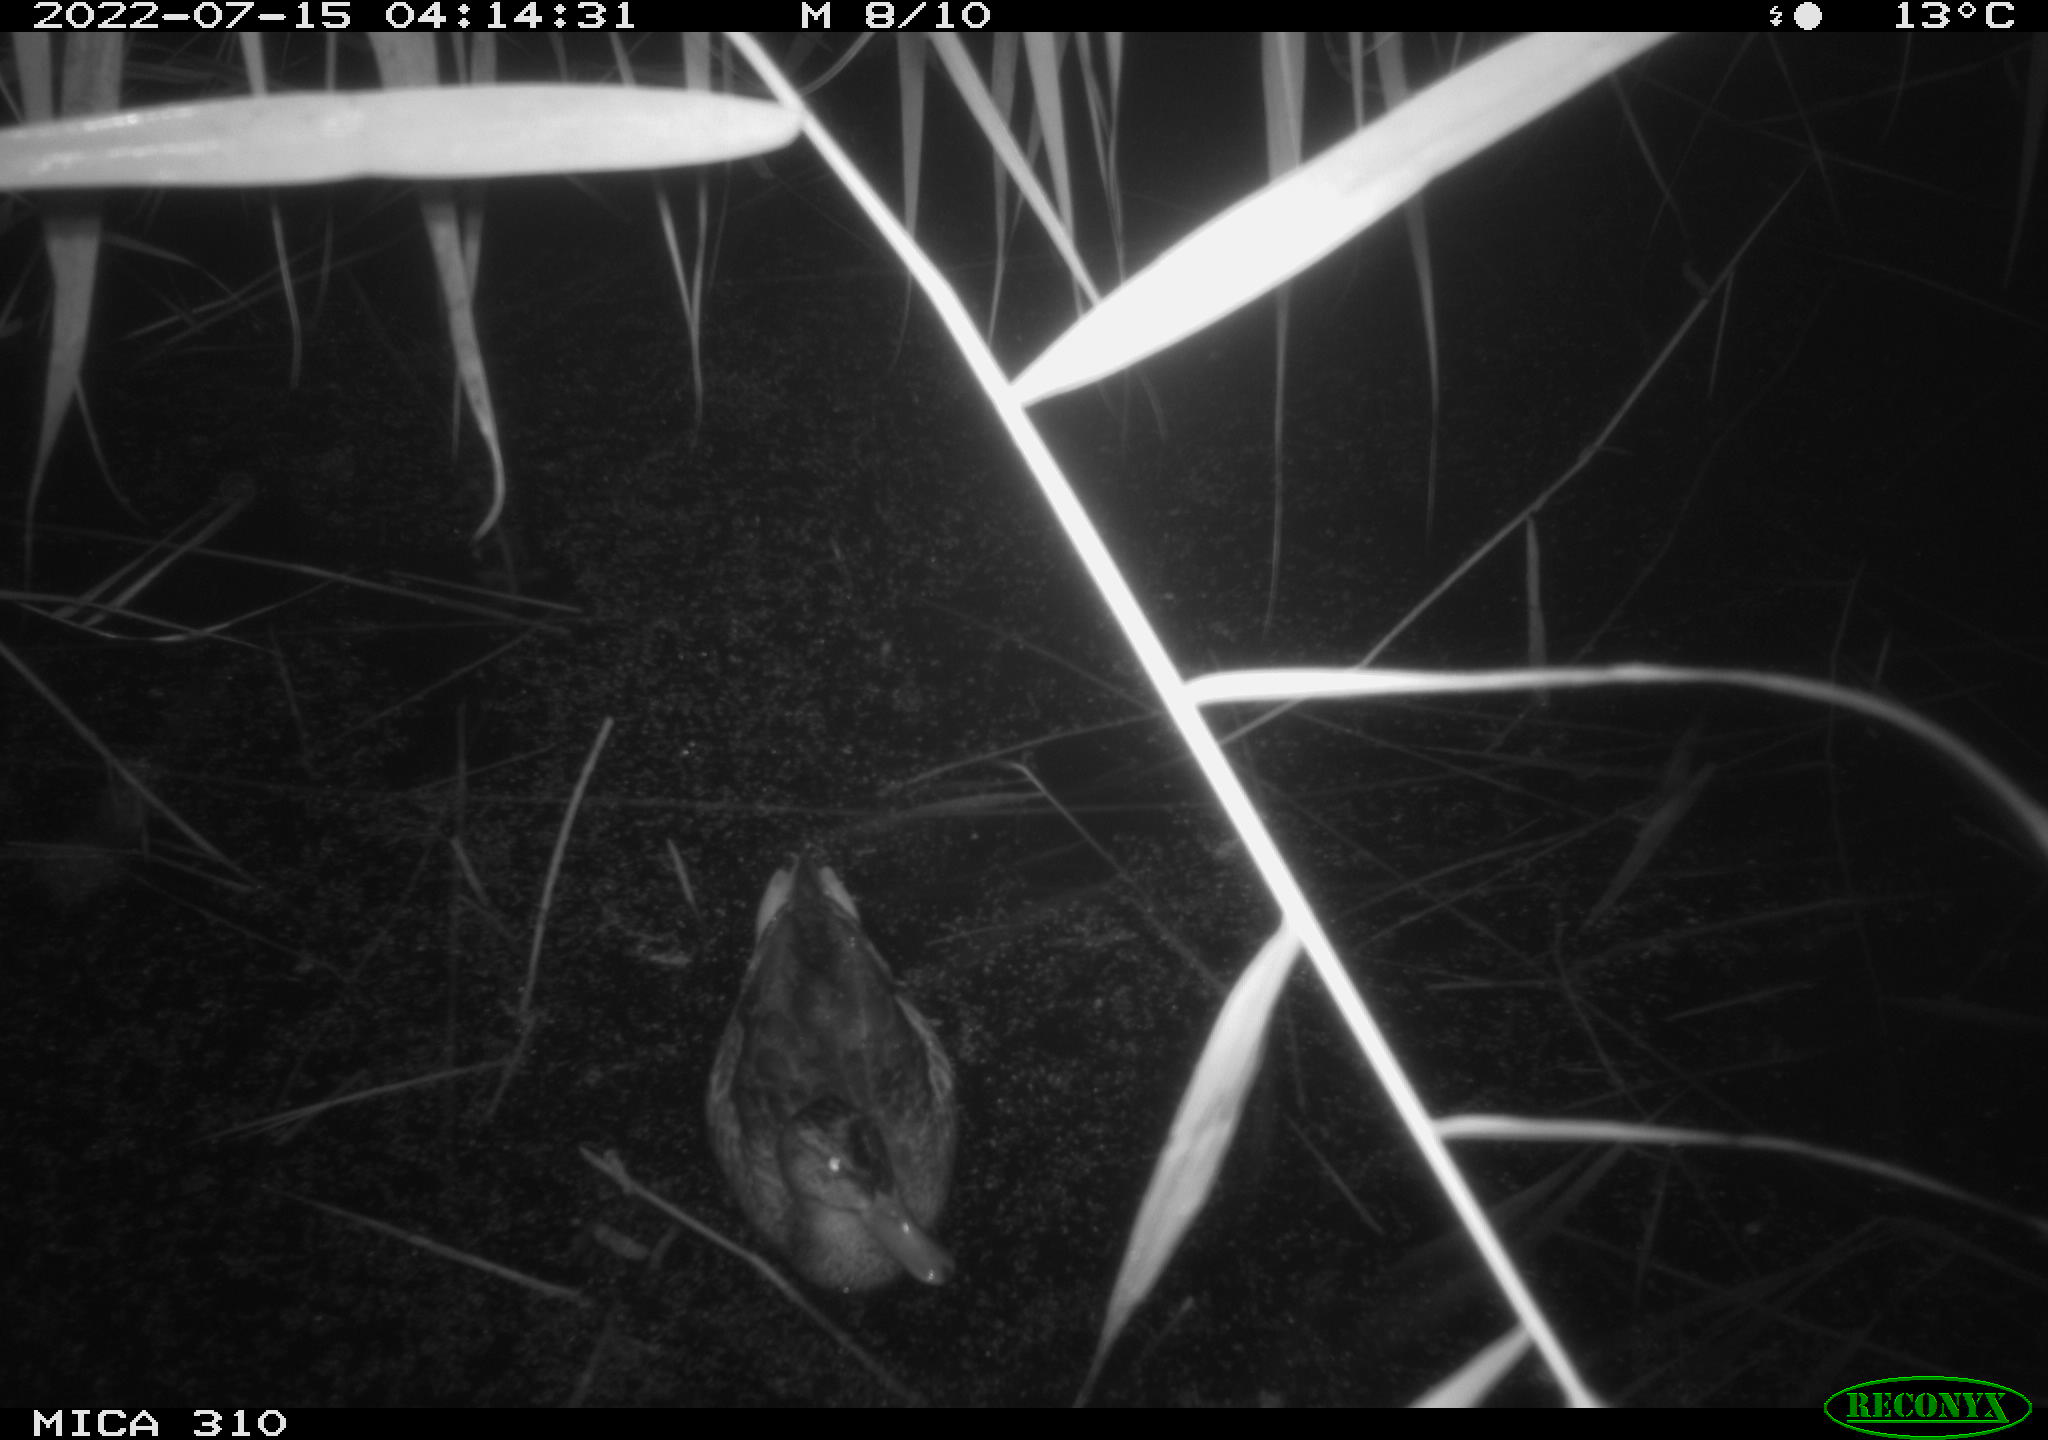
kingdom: Animalia
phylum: Chordata
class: Aves
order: Anseriformes
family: Anatidae
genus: Anas
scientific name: Anas platyrhynchos
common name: Mallard
